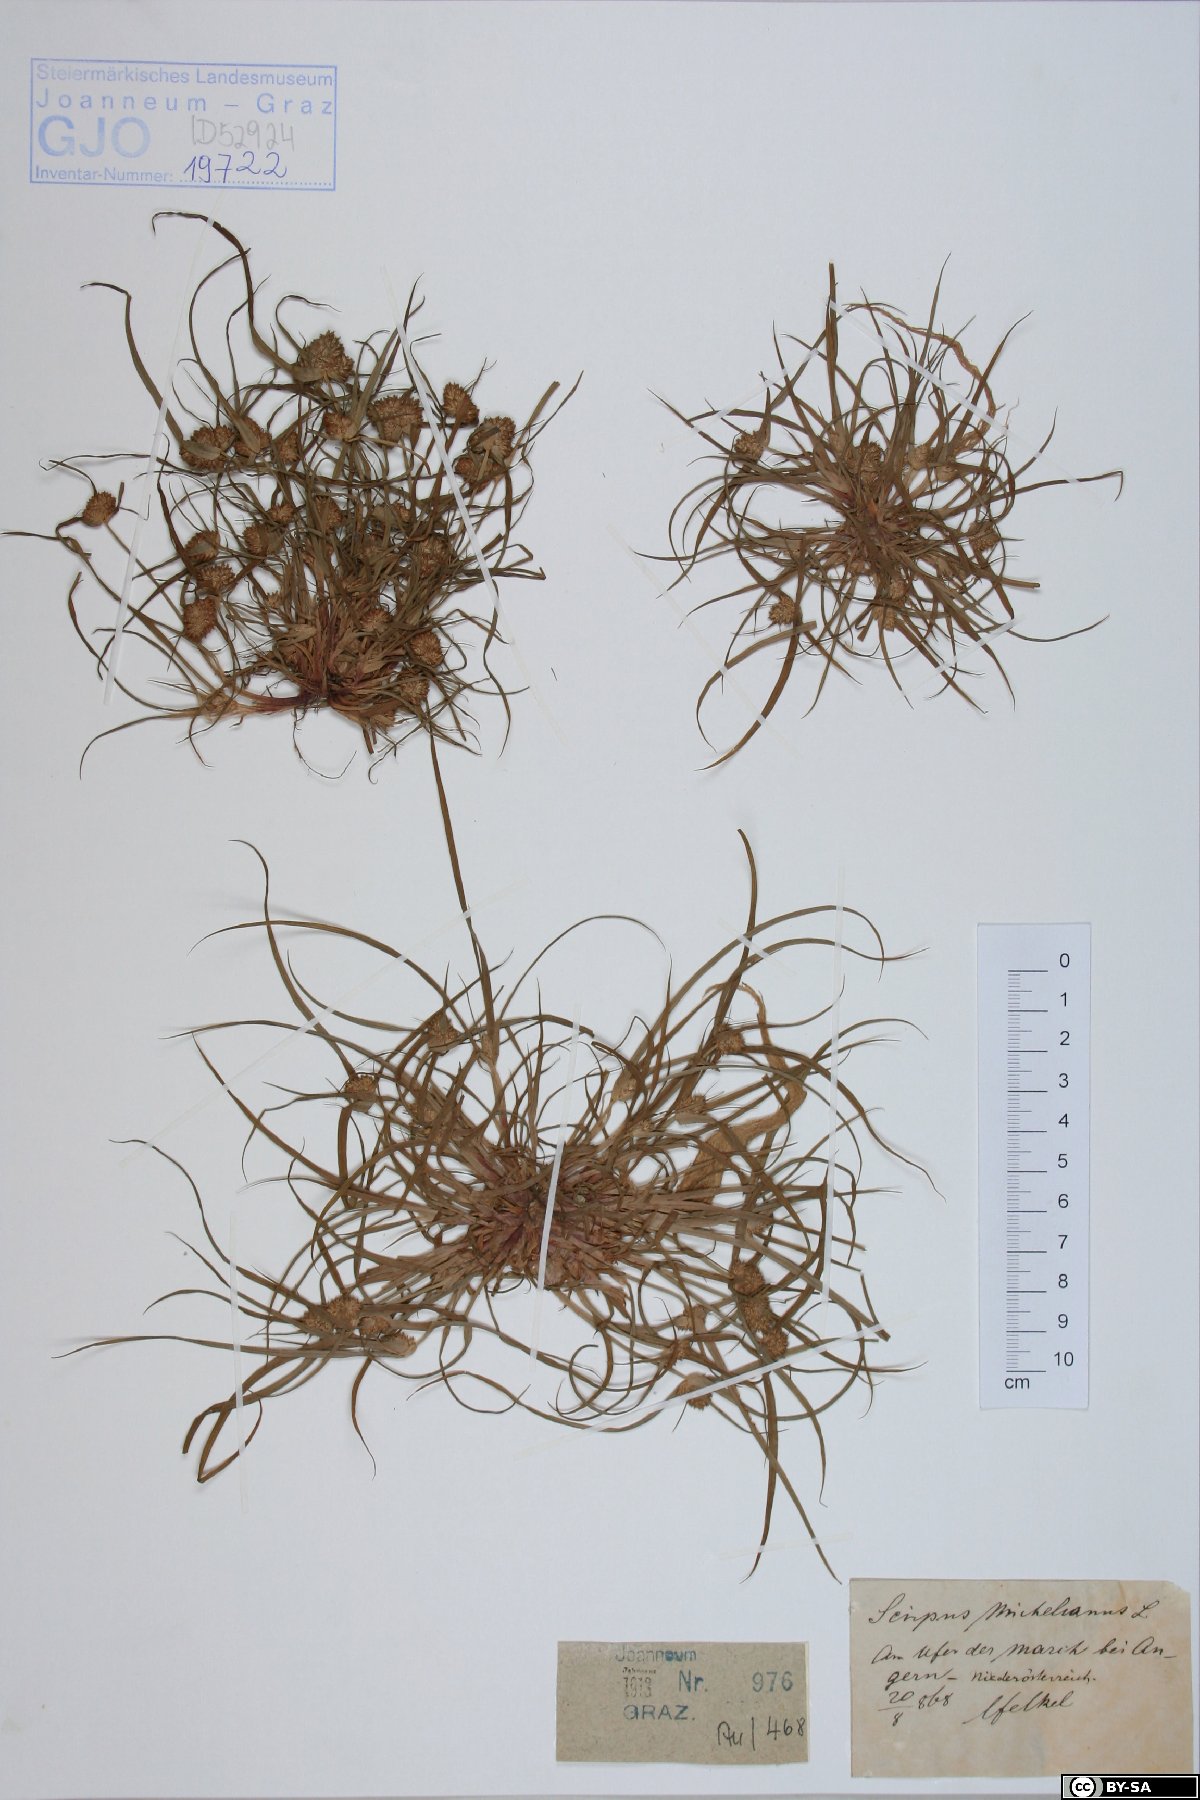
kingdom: Plantae
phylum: Tracheophyta
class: Liliopsida
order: Poales
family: Cyperaceae
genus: Cyperus
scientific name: Cyperus michelianus
